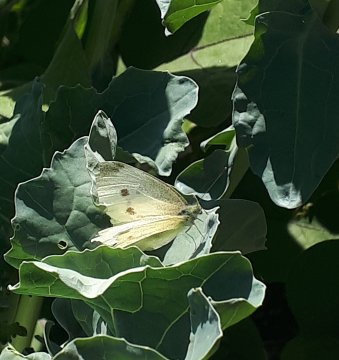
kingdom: Animalia
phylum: Arthropoda
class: Insecta
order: Lepidoptera
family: Pieridae
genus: Pieris
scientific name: Pieris rapae
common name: Cabbage White
